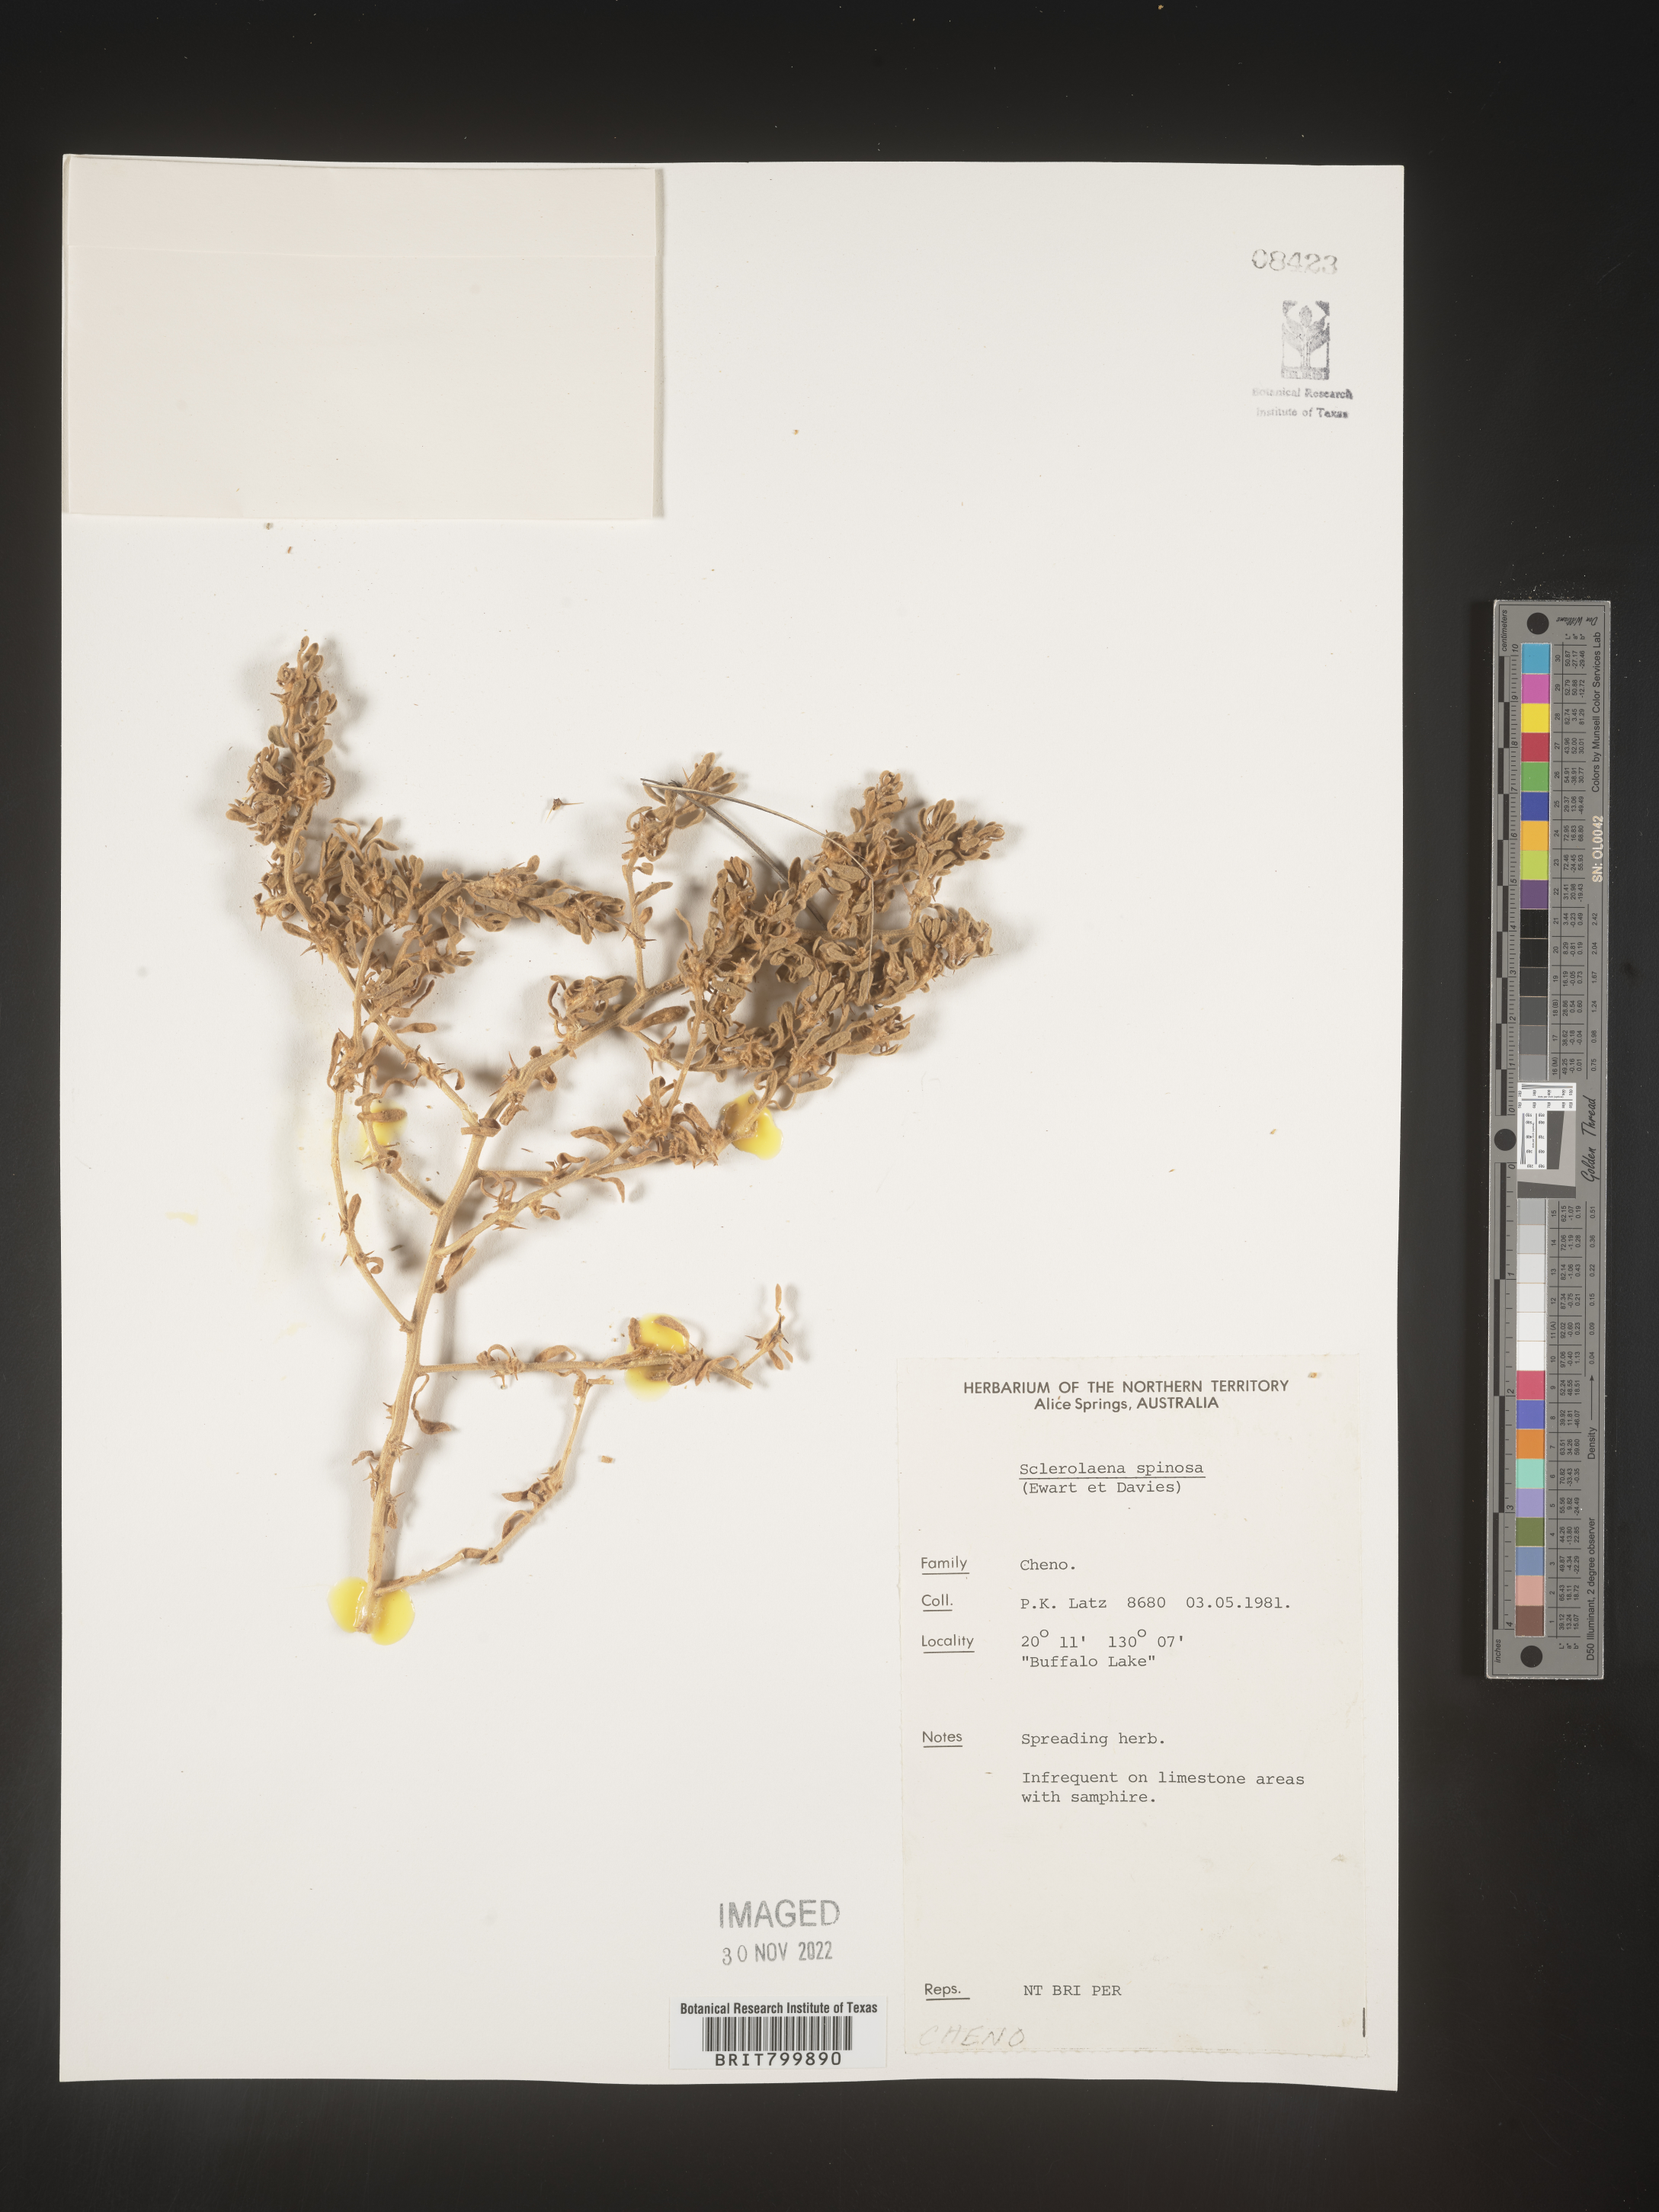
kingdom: Plantae
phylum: Tracheophyta
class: Magnoliopsida
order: Caryophyllales
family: Amaranthaceae
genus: Sclerolaena
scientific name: Sclerolaena
